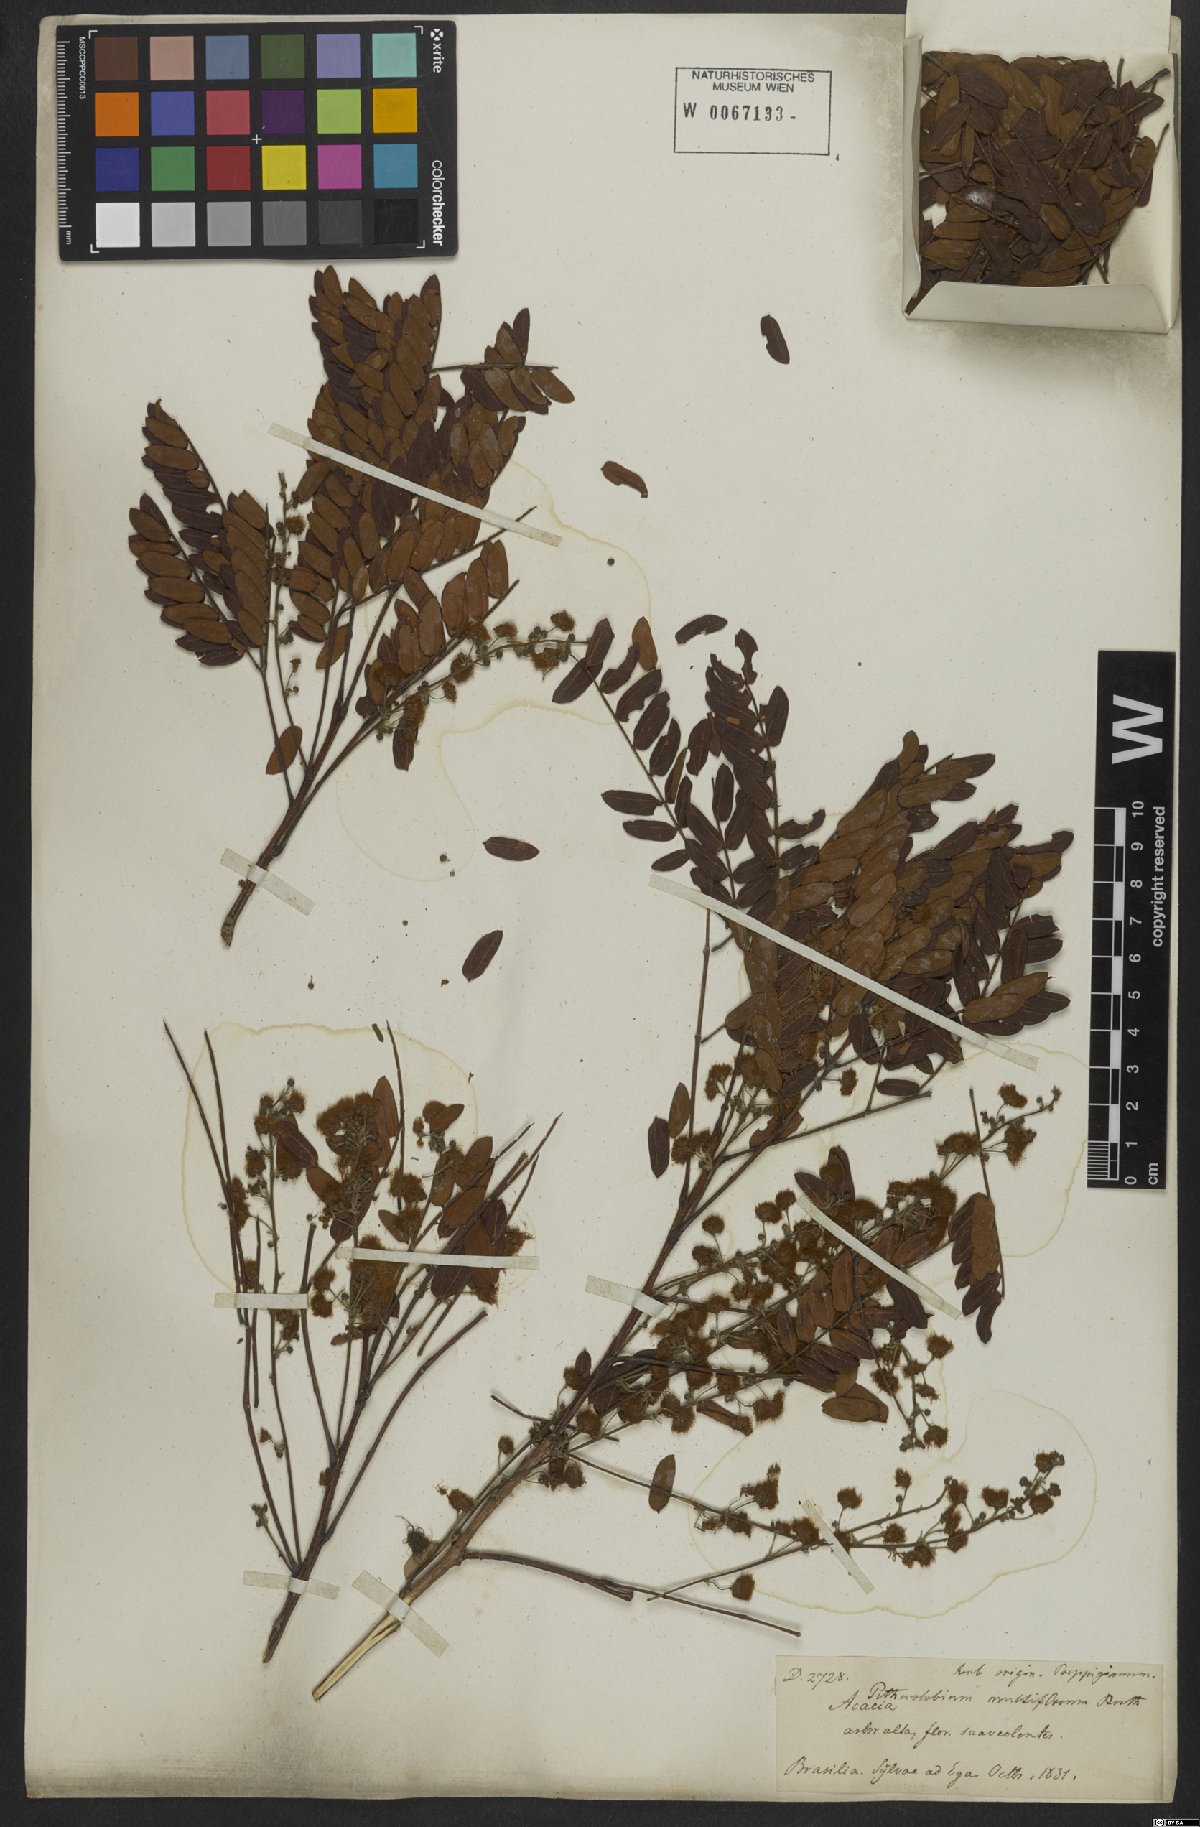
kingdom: Plantae
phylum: Tracheophyta
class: Magnoliopsida
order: Fabales
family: Fabaceae
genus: Albizia
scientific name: Albizia multiflora
